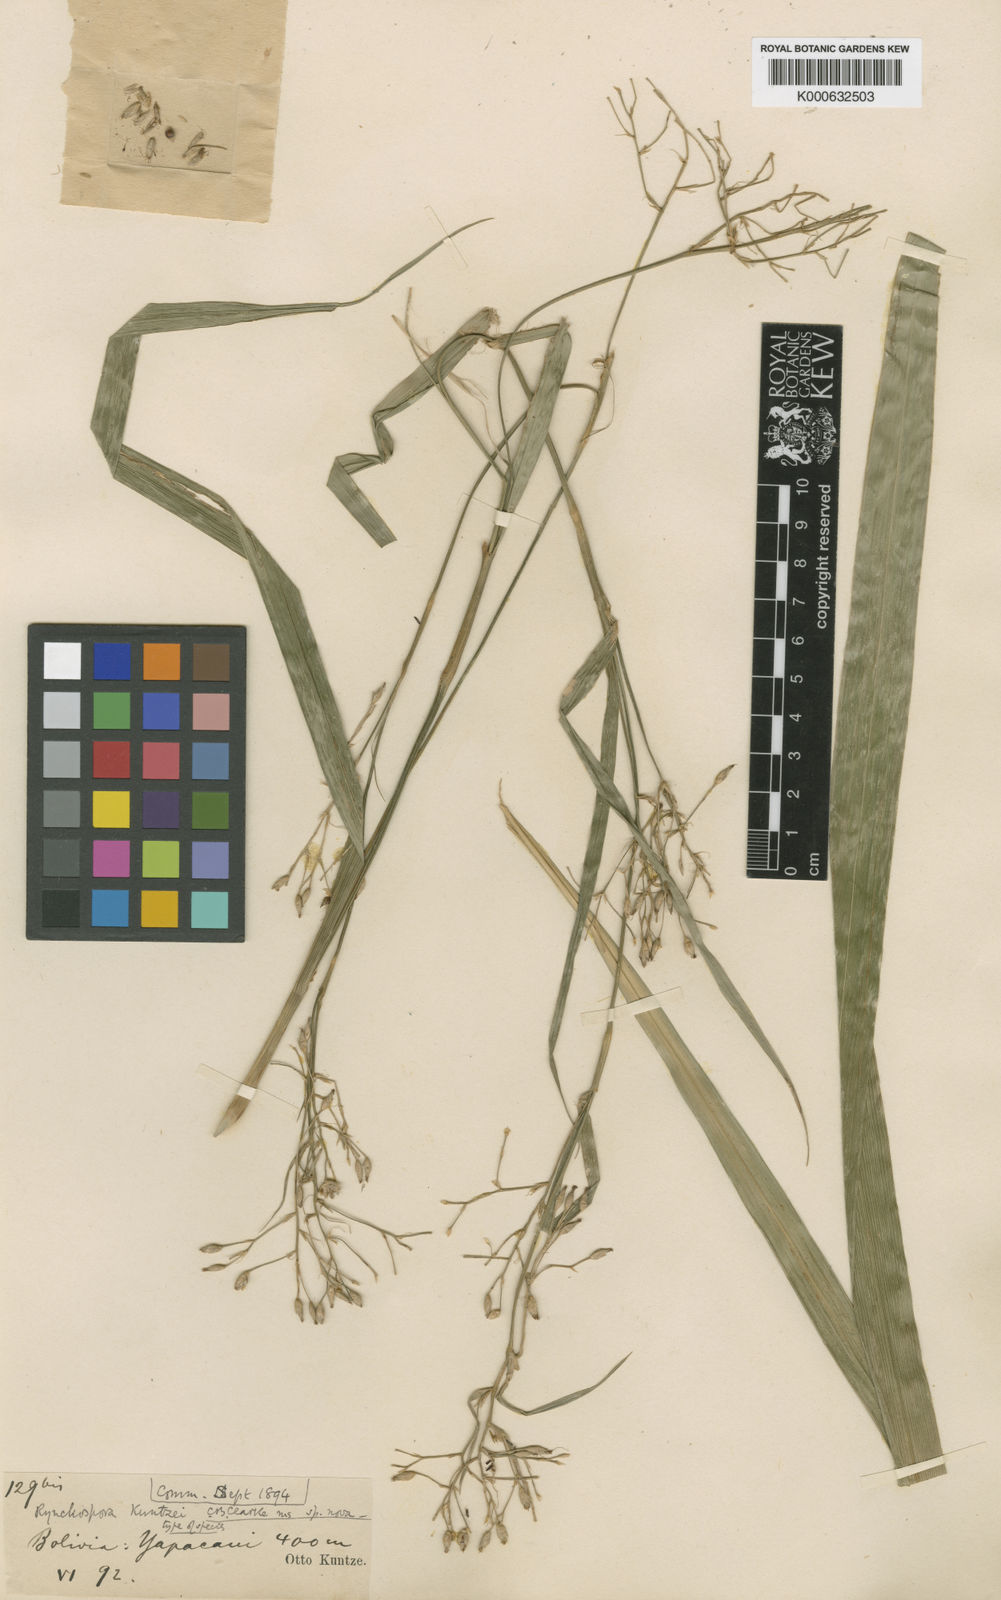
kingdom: Plantae
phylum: Tracheophyta
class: Liliopsida
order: Poales
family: Cyperaceae
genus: Rhynchospora
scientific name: Rhynchospora umbraticola
